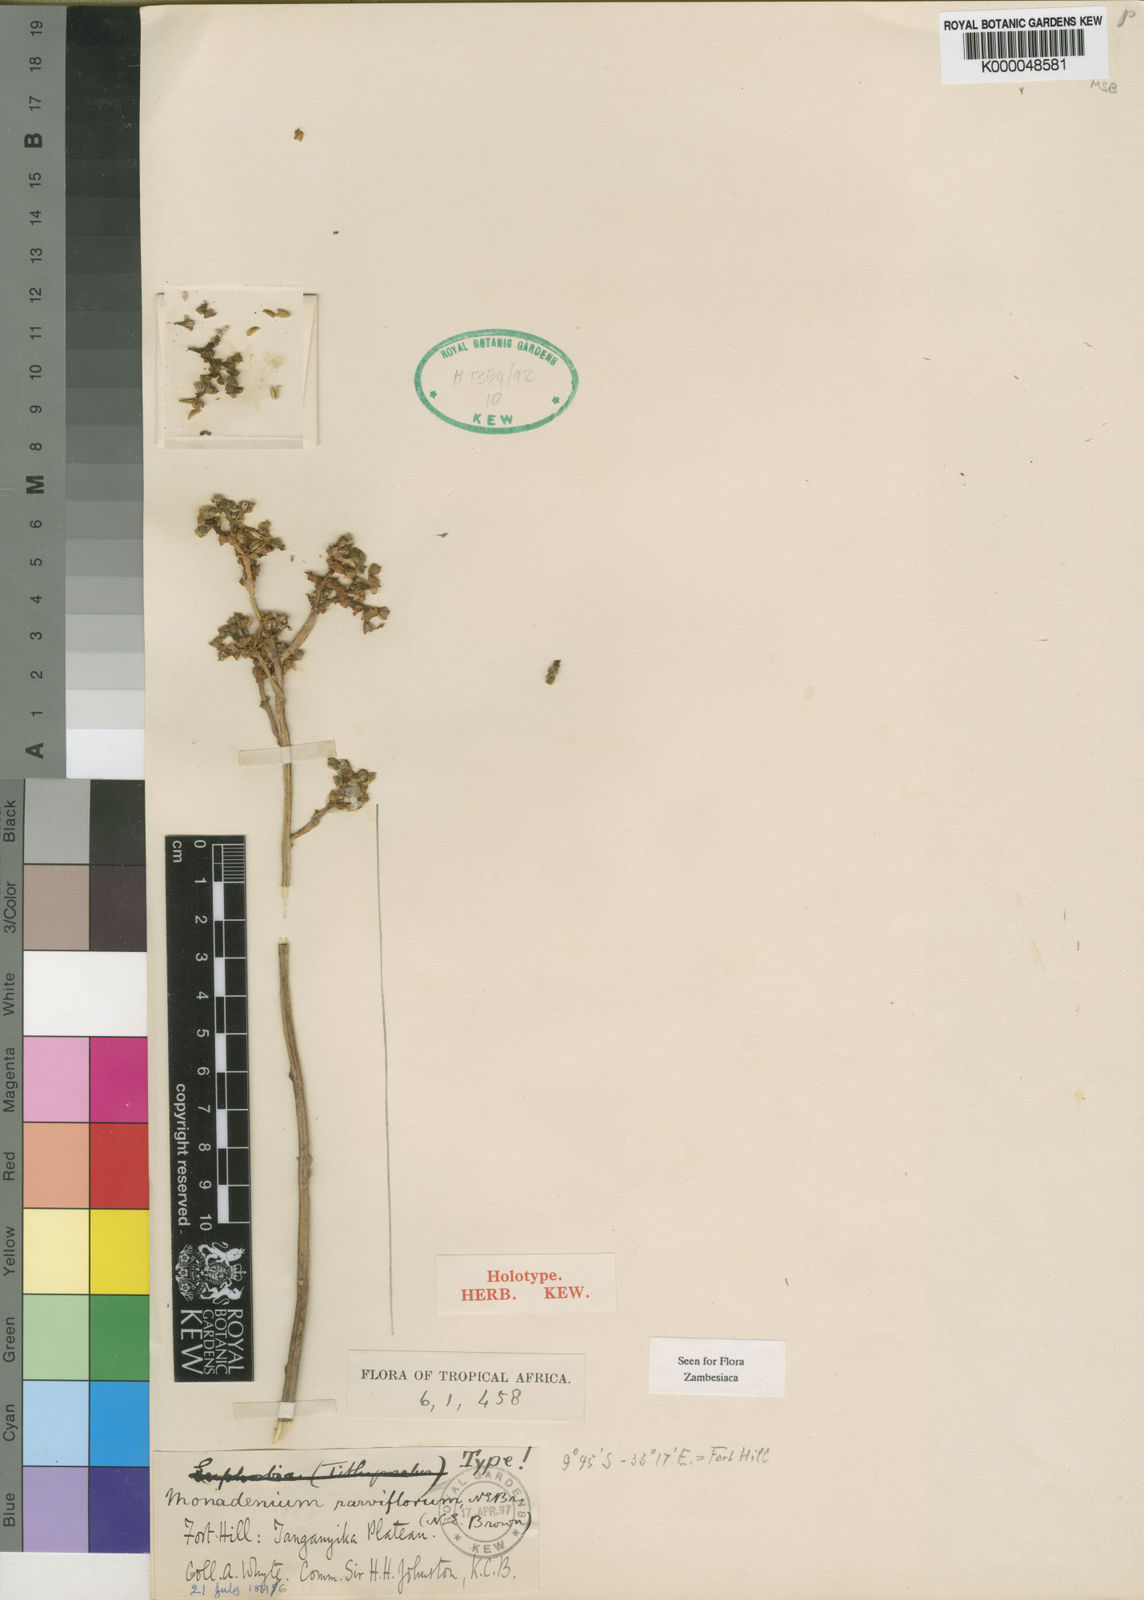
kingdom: Plantae
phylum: Tracheophyta
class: Magnoliopsida
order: Malpighiales
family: Euphorbiaceae
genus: Euphorbia
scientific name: Euphorbia neoparviflora
